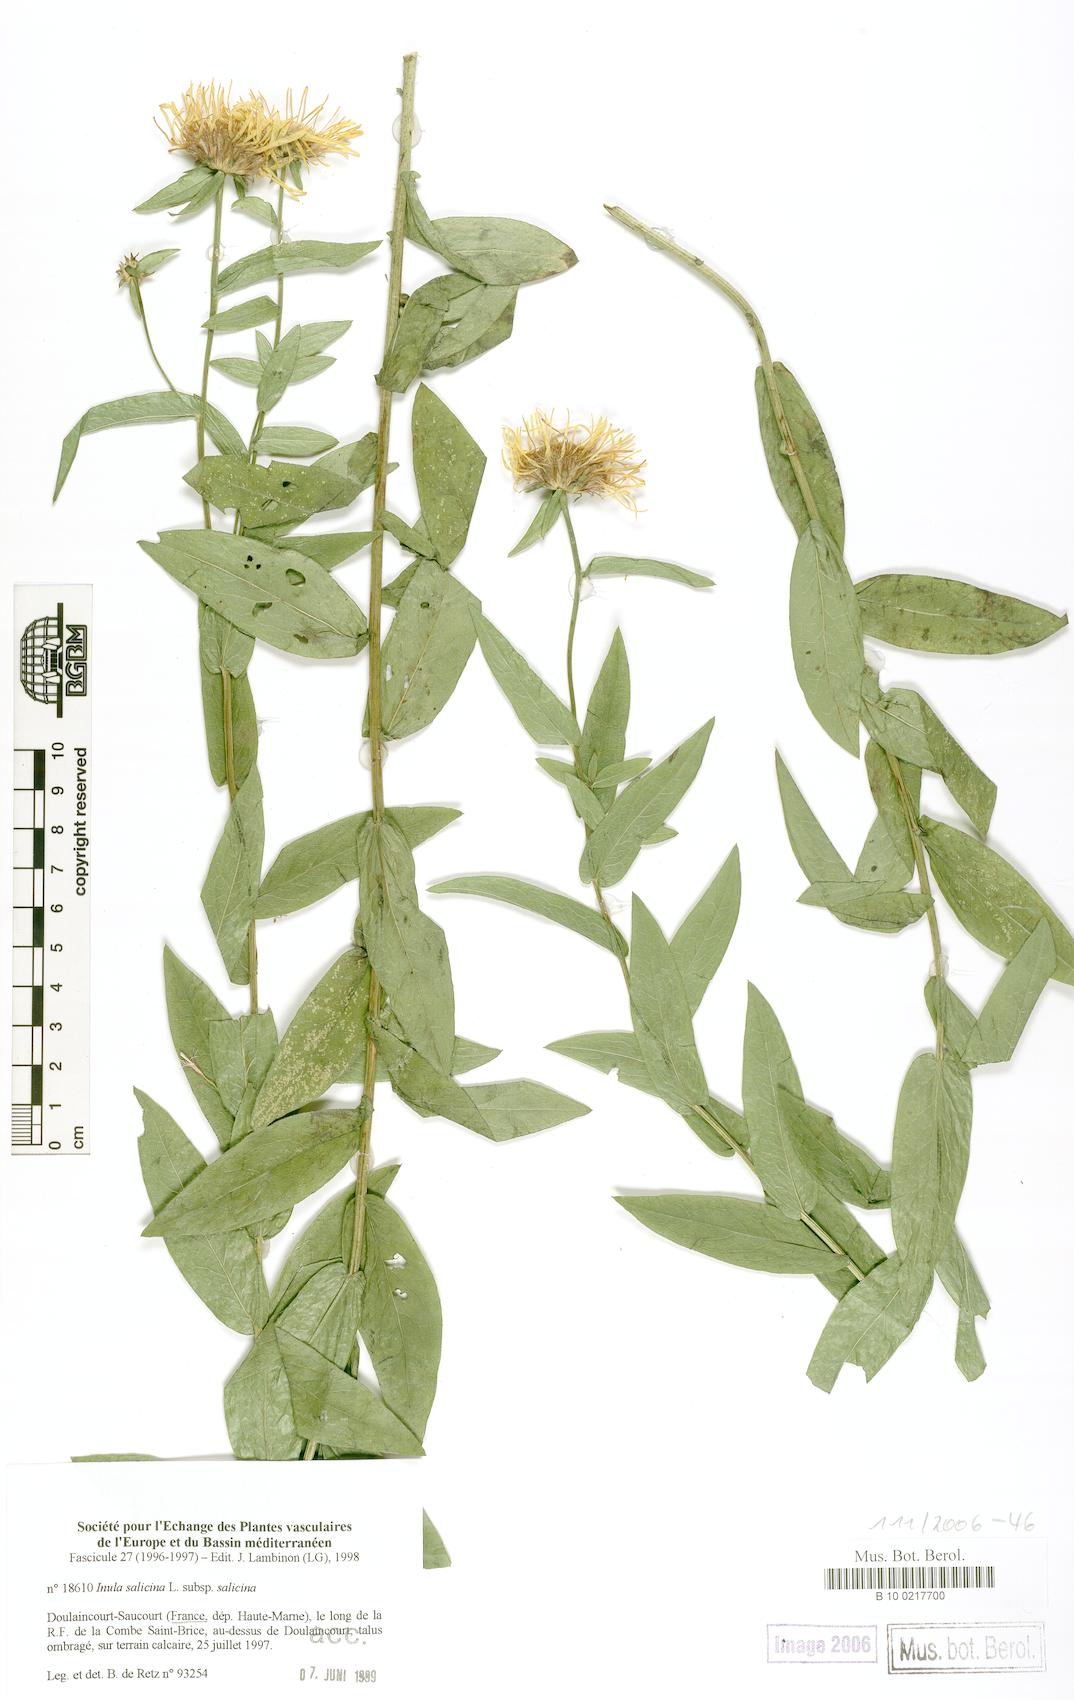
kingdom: Plantae
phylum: Tracheophyta
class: Magnoliopsida
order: Asterales
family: Asteraceae
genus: Pentanema
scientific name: Pentanema salicinum
